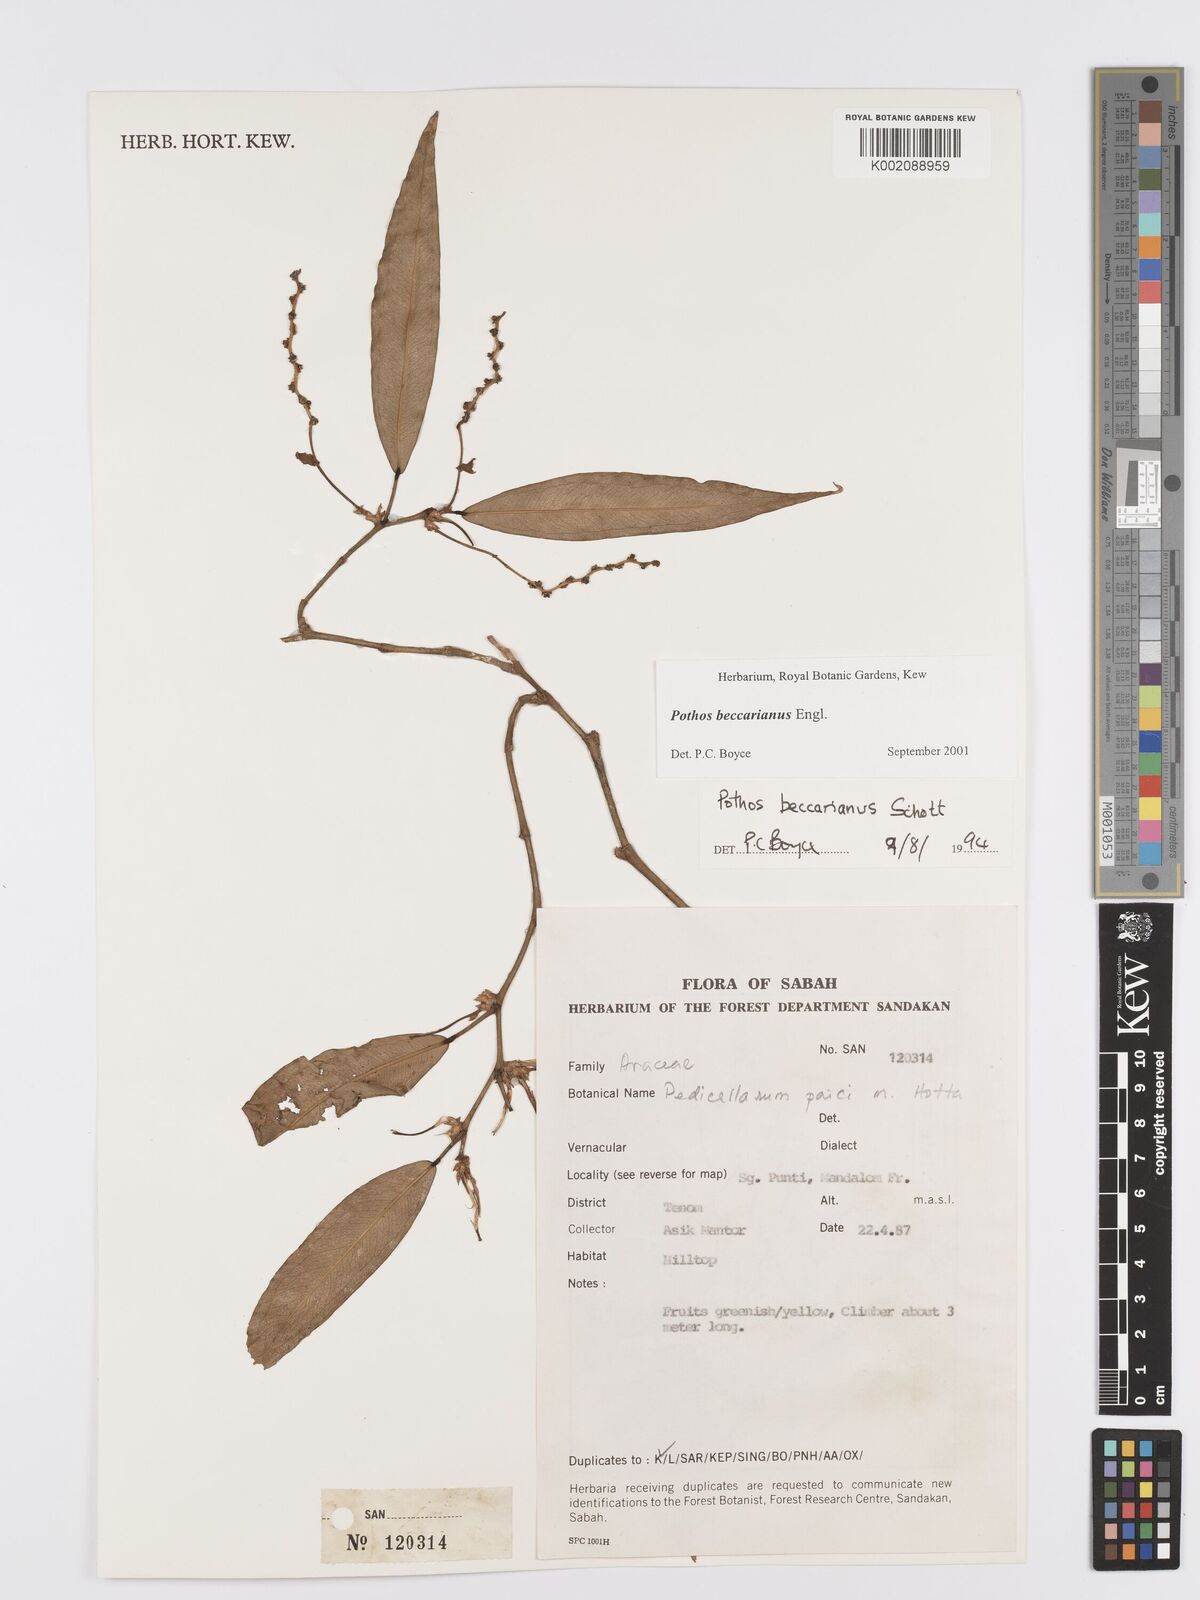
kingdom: Plantae
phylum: Tracheophyta
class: Liliopsida
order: Alismatales
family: Araceae
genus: Pothos
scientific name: Pothos beccarianus
